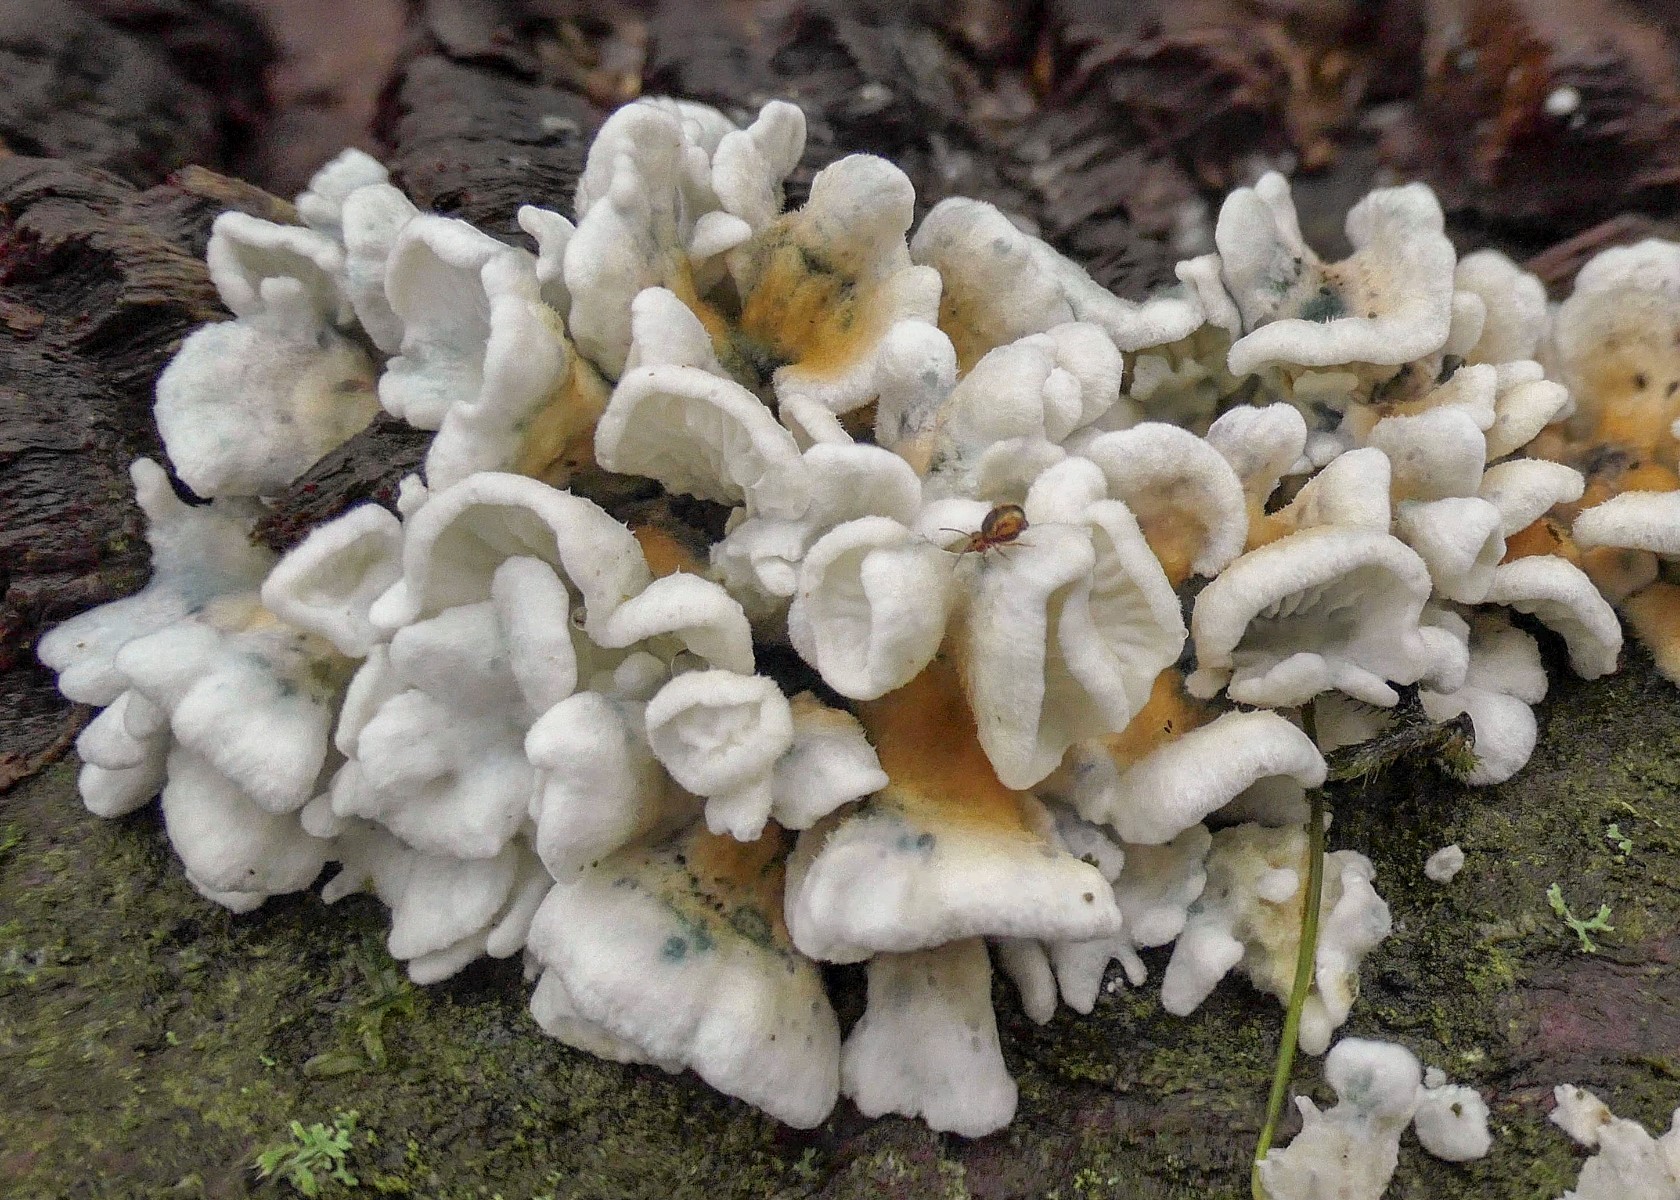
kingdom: Fungi
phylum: Basidiomycota
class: Agaricomycetes
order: Amylocorticiales
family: Amylocorticiaceae
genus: Plicaturopsis
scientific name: Plicaturopsis crispa
